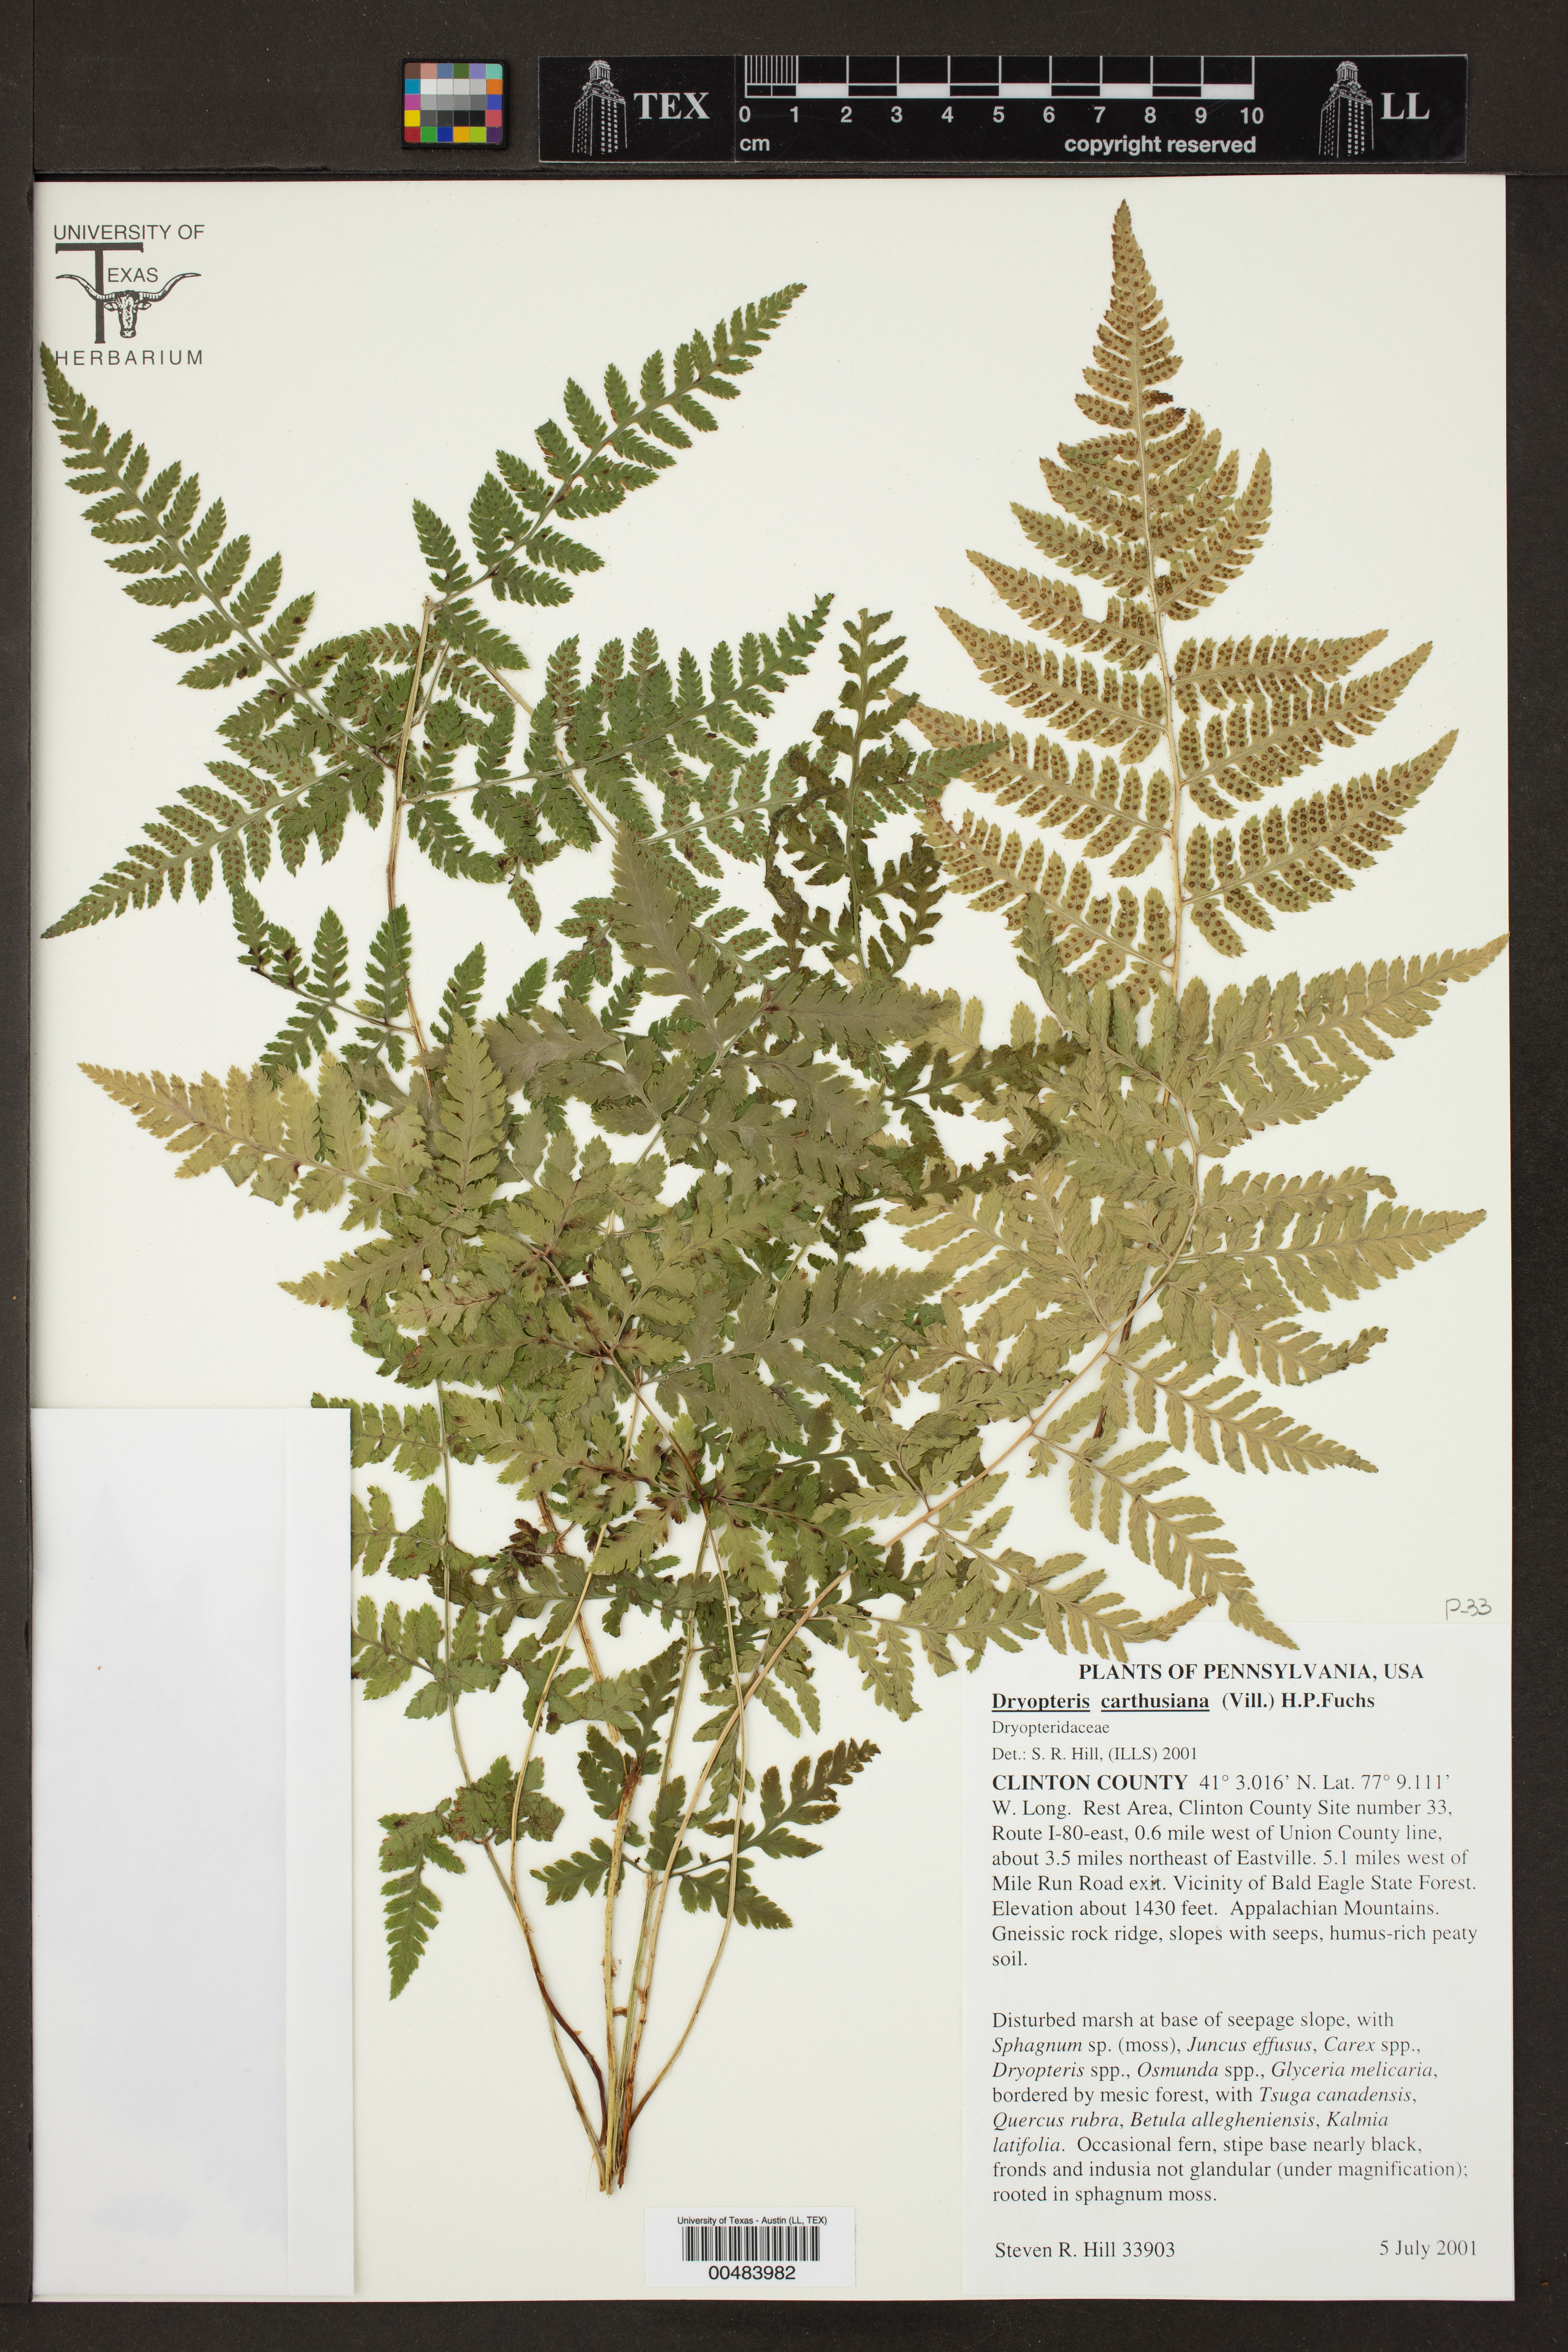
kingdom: Plantae
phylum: Tracheophyta
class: Polypodiopsida
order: Polypodiales
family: Dryopteridaceae
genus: Dryopteris
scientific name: Dryopteris carthusiana
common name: Narrow buckler-fern
